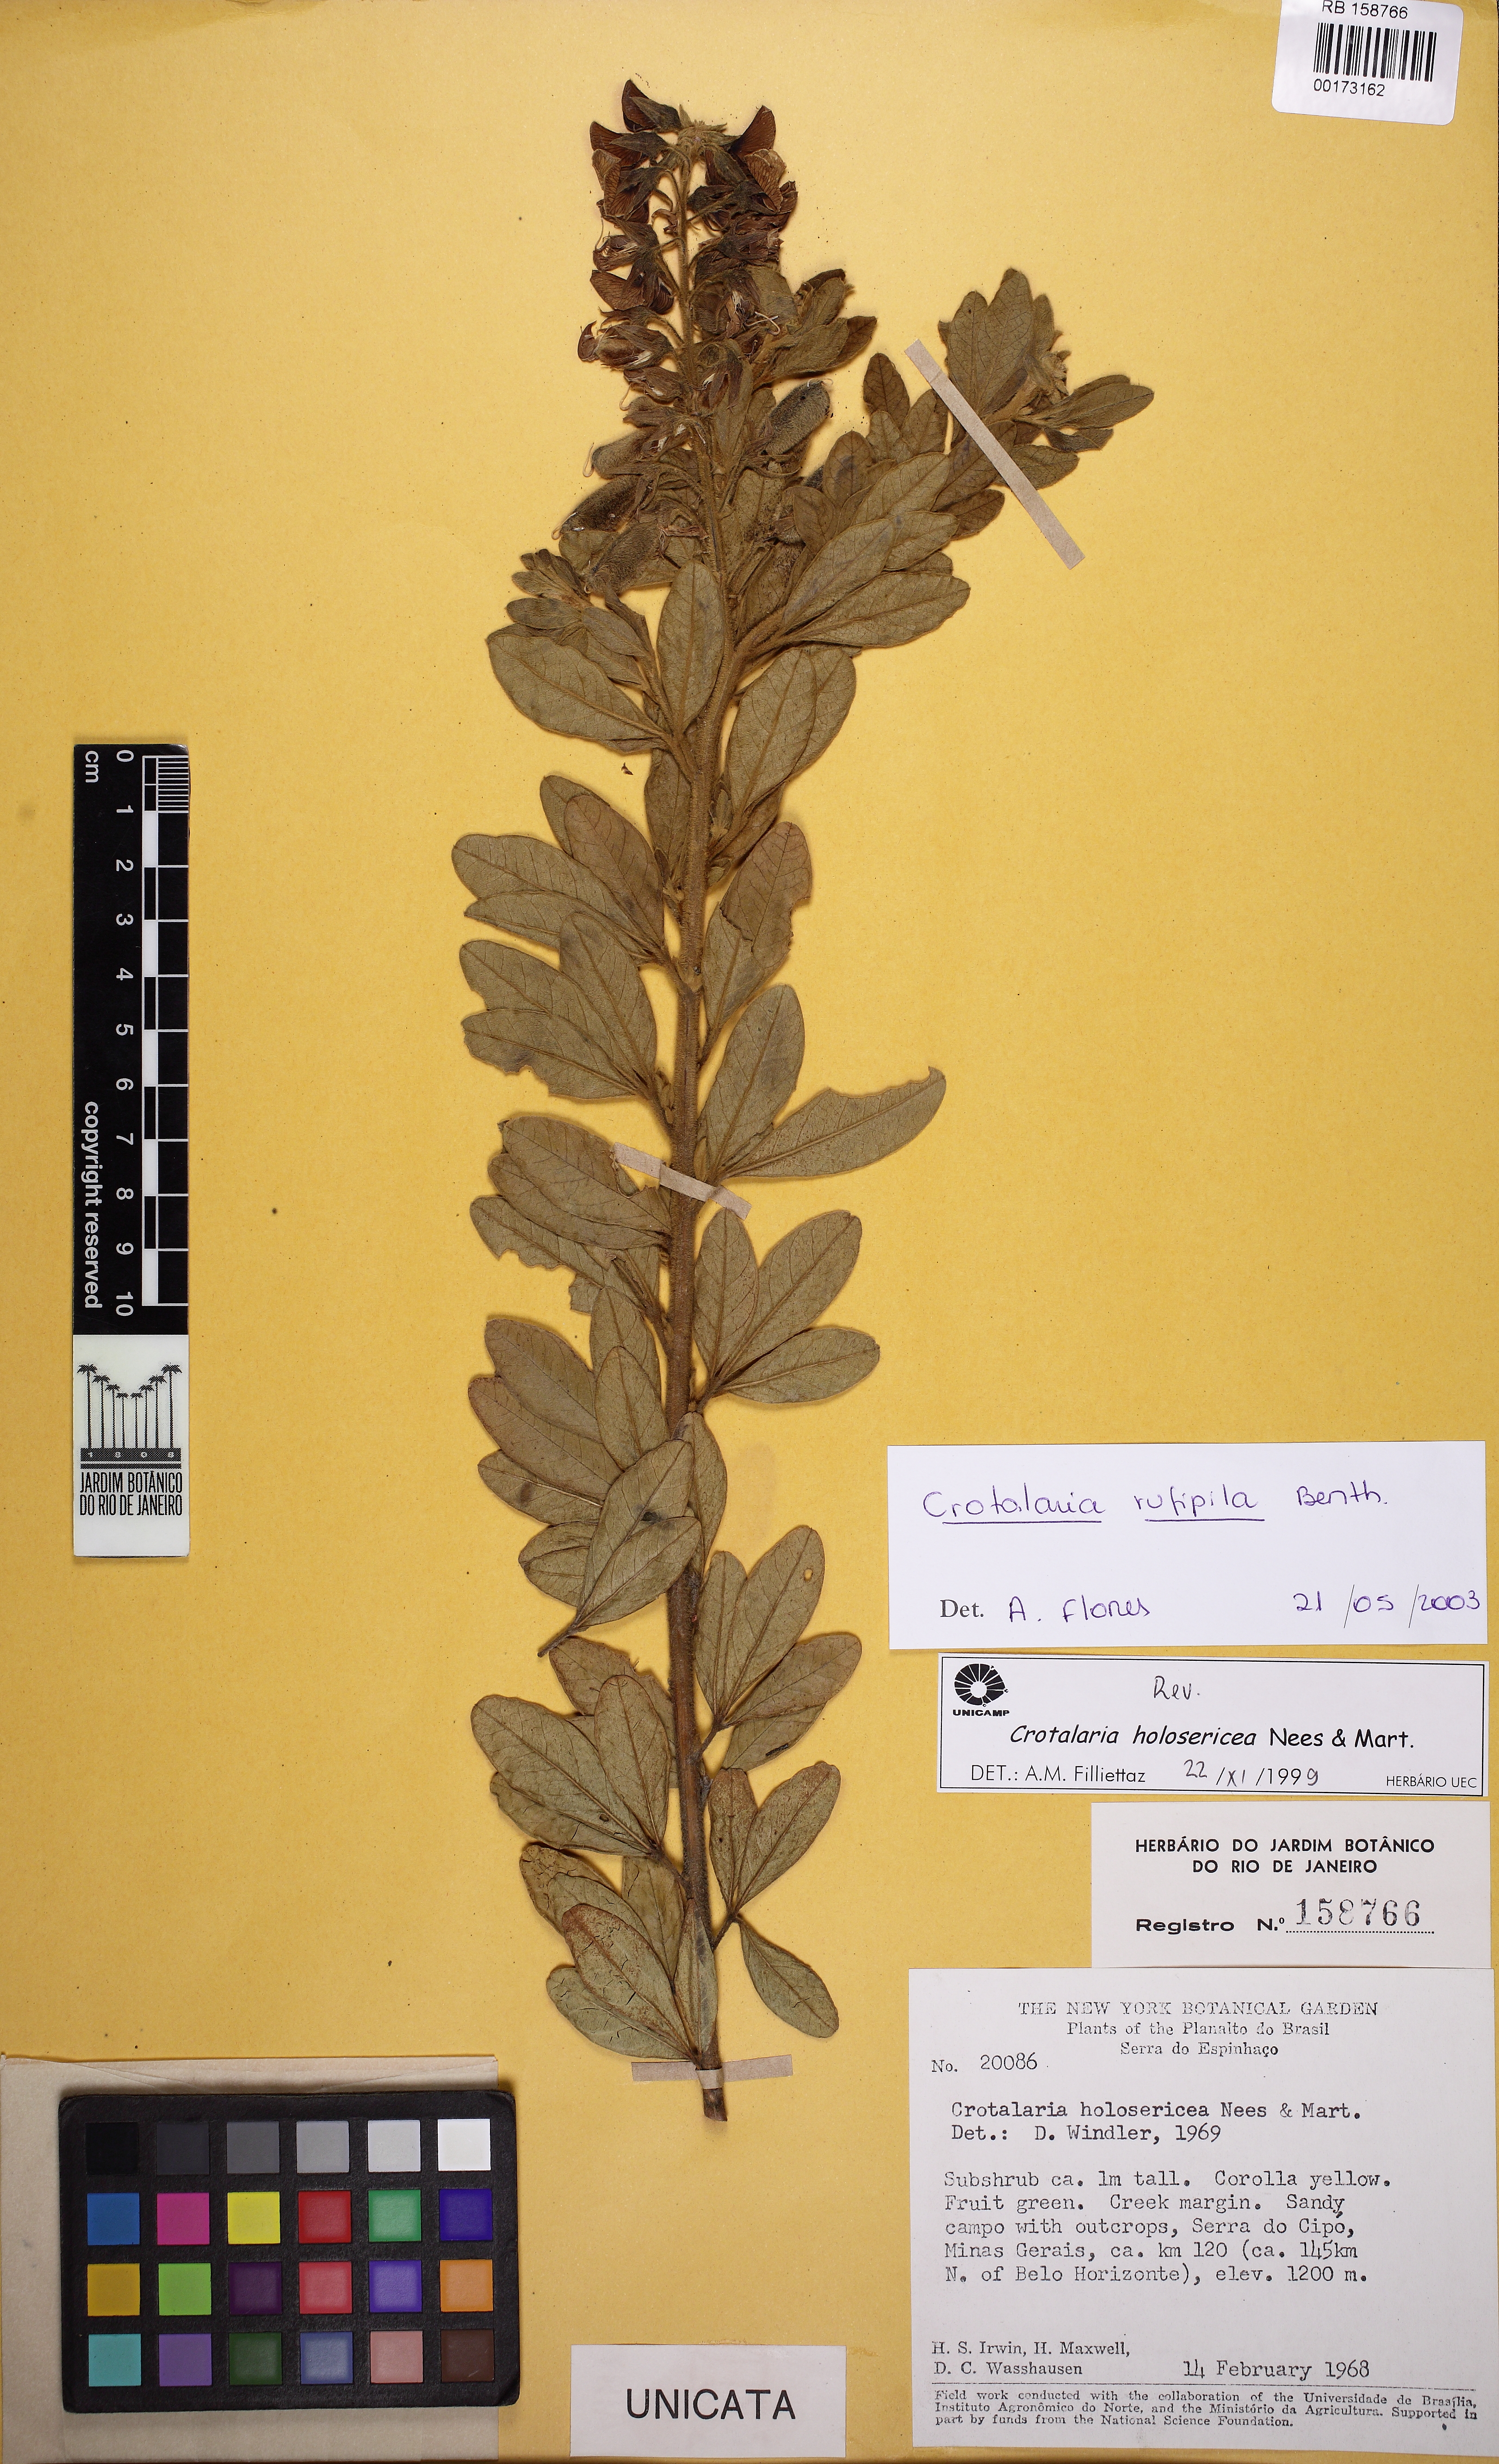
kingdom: Plantae
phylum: Tracheophyta
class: Magnoliopsida
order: Fabales
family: Fabaceae
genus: Crotalaria
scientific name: Crotalaria rufipila
